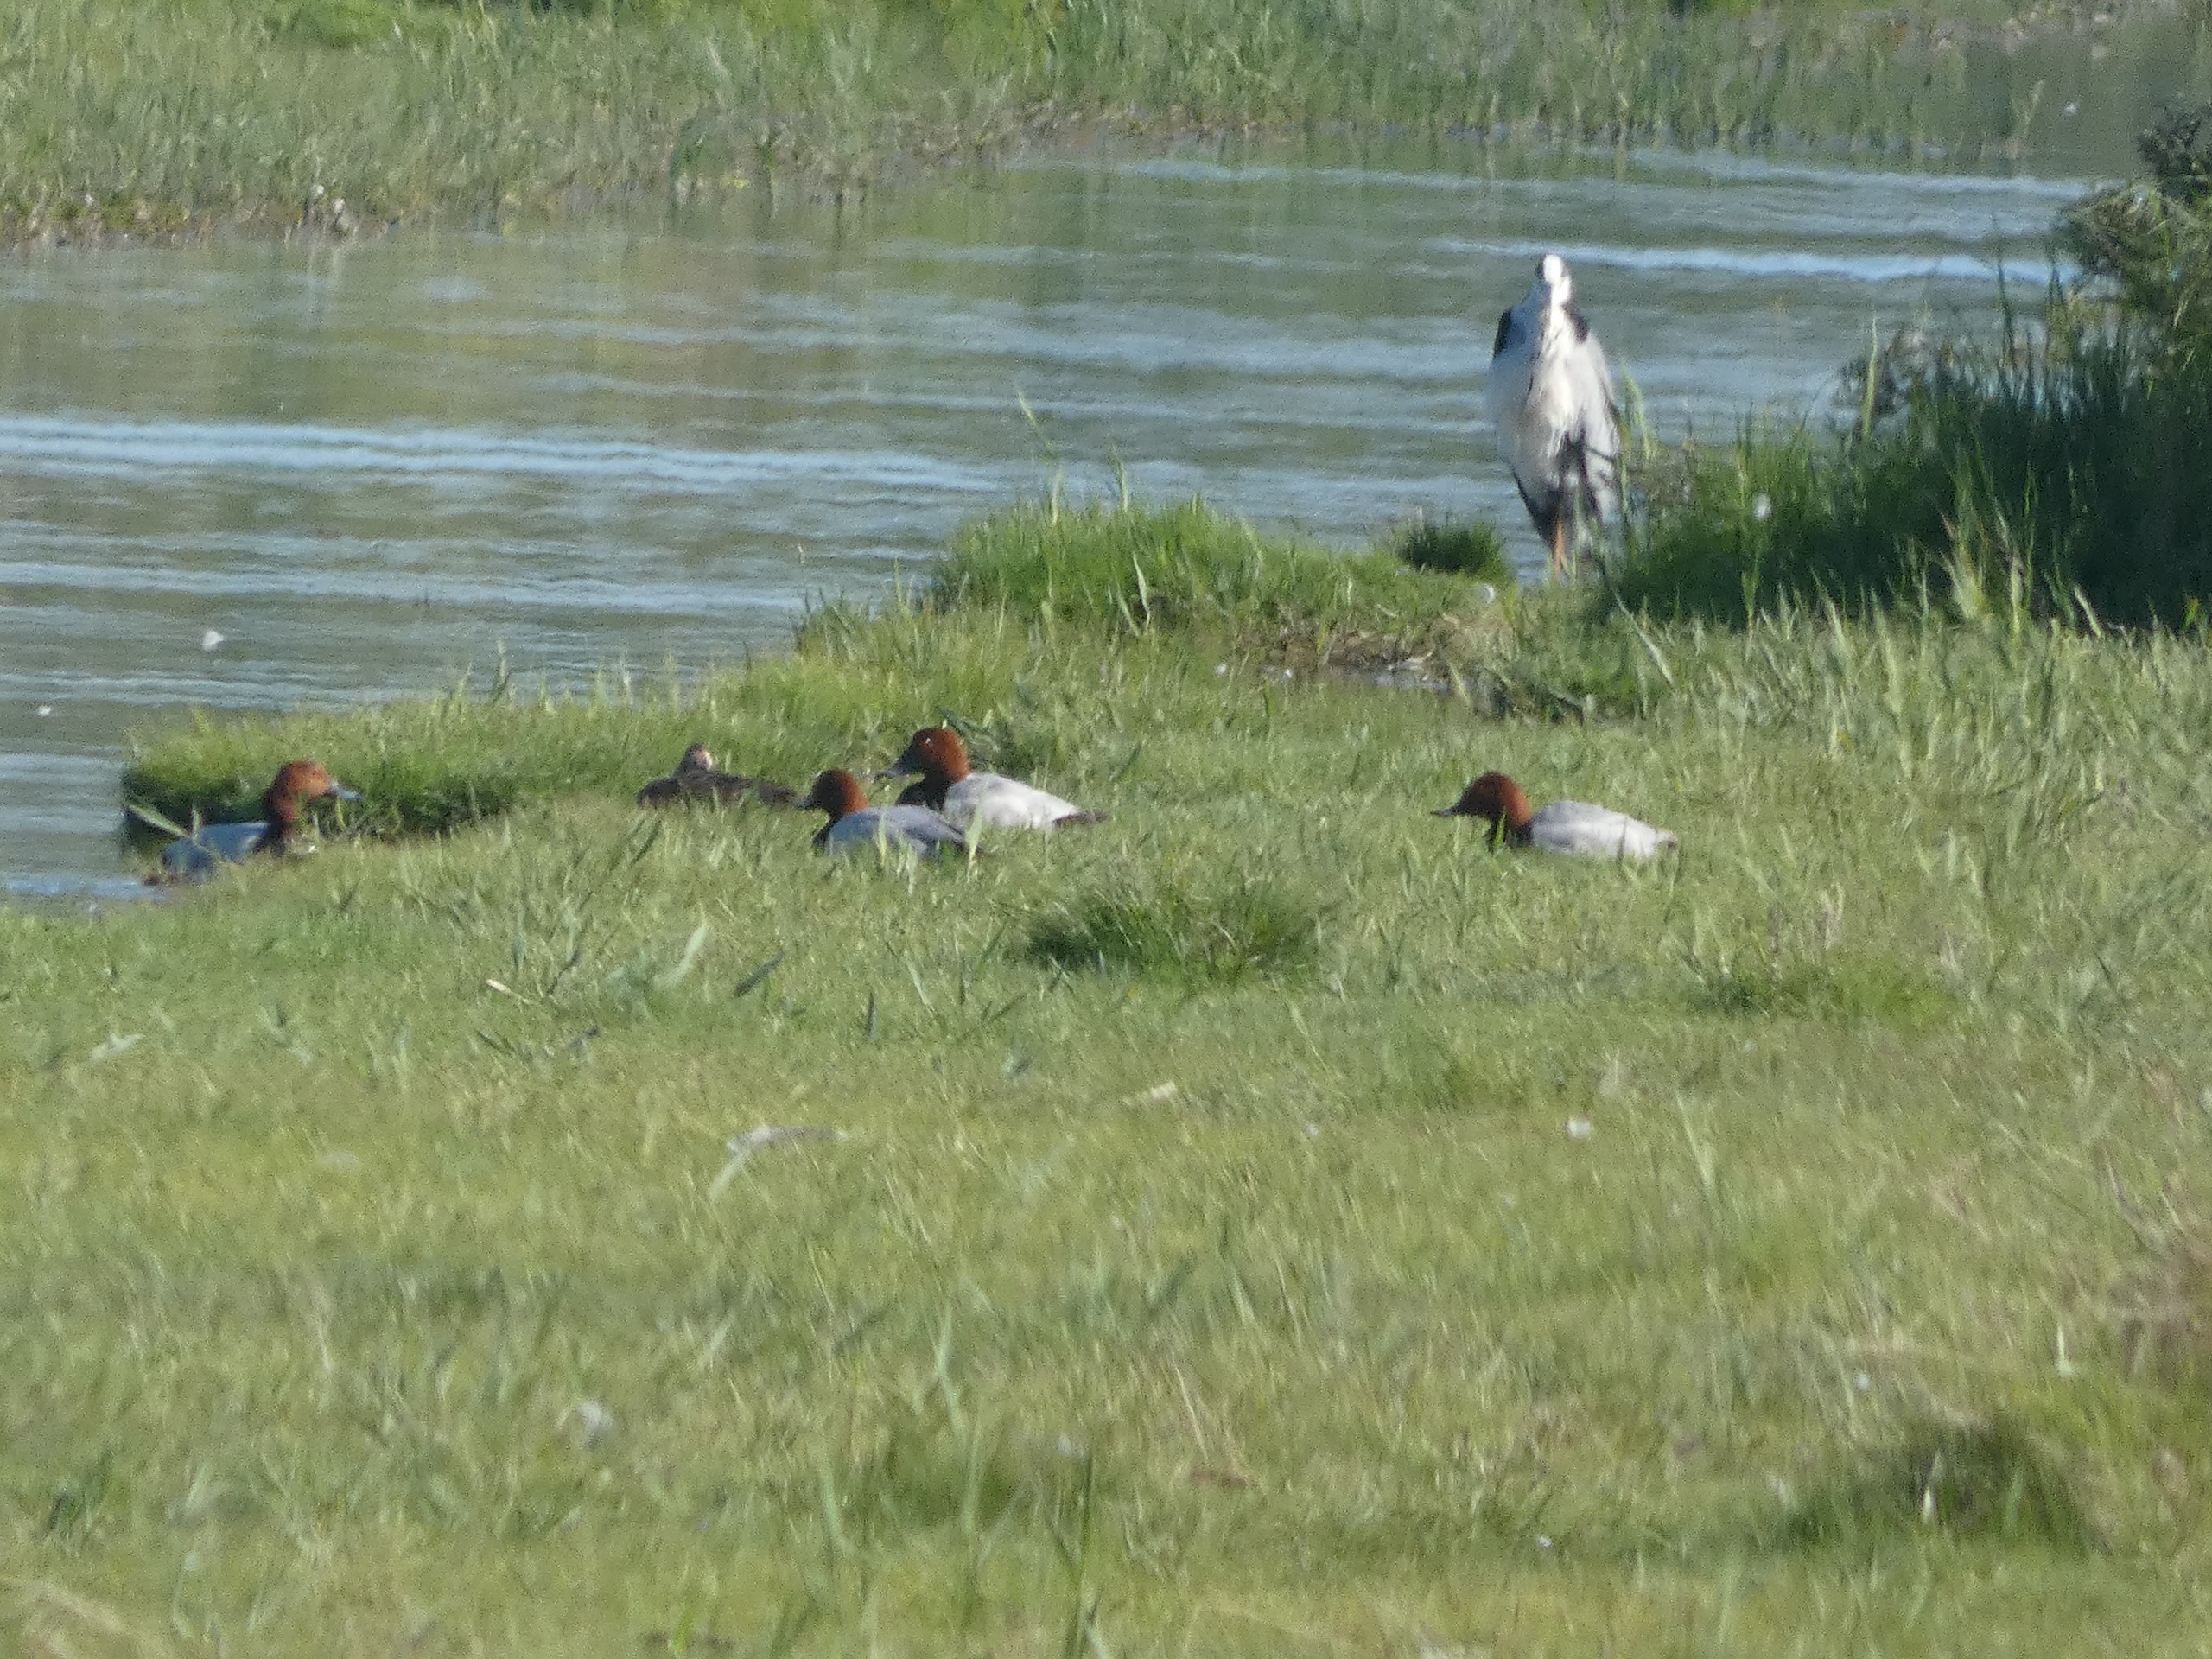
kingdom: Animalia
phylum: Chordata
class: Aves
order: Anseriformes
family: Anatidae
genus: Aythya
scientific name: Aythya ferina
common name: Taffeland
